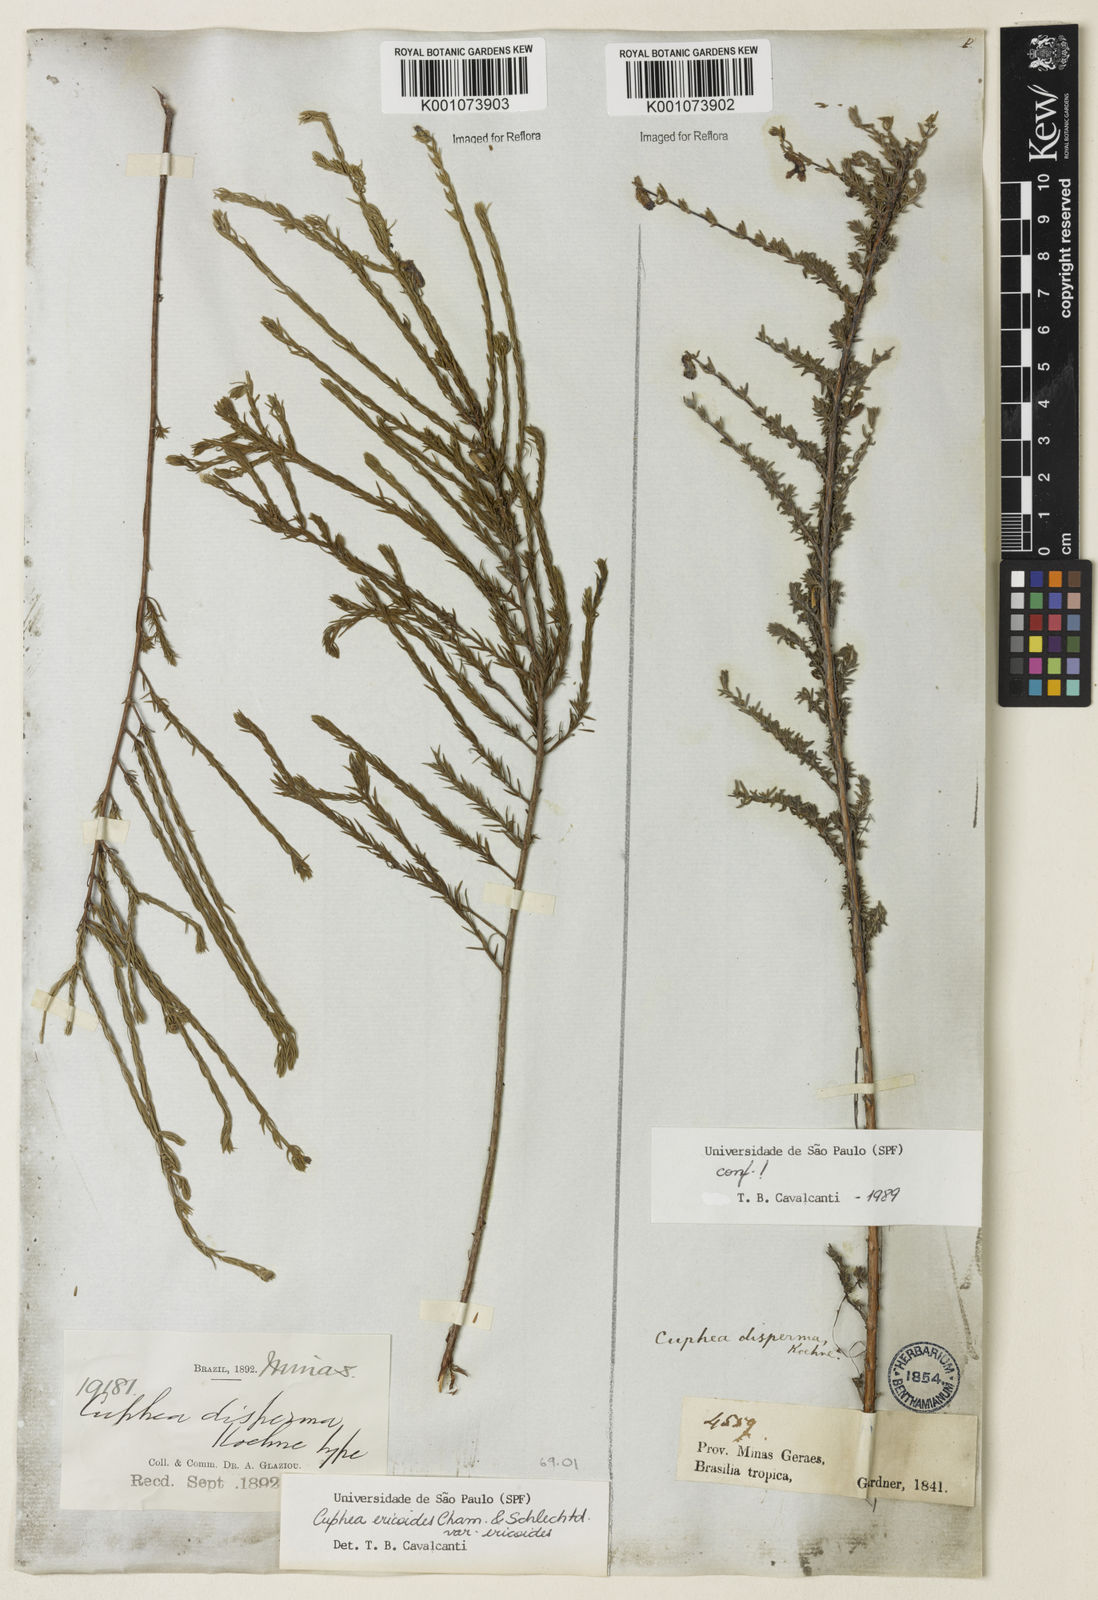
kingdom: Plantae
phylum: Tracheophyta
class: Magnoliopsida
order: Myrtales
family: Lythraceae
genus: Cuphea
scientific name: Cuphea ericoides
